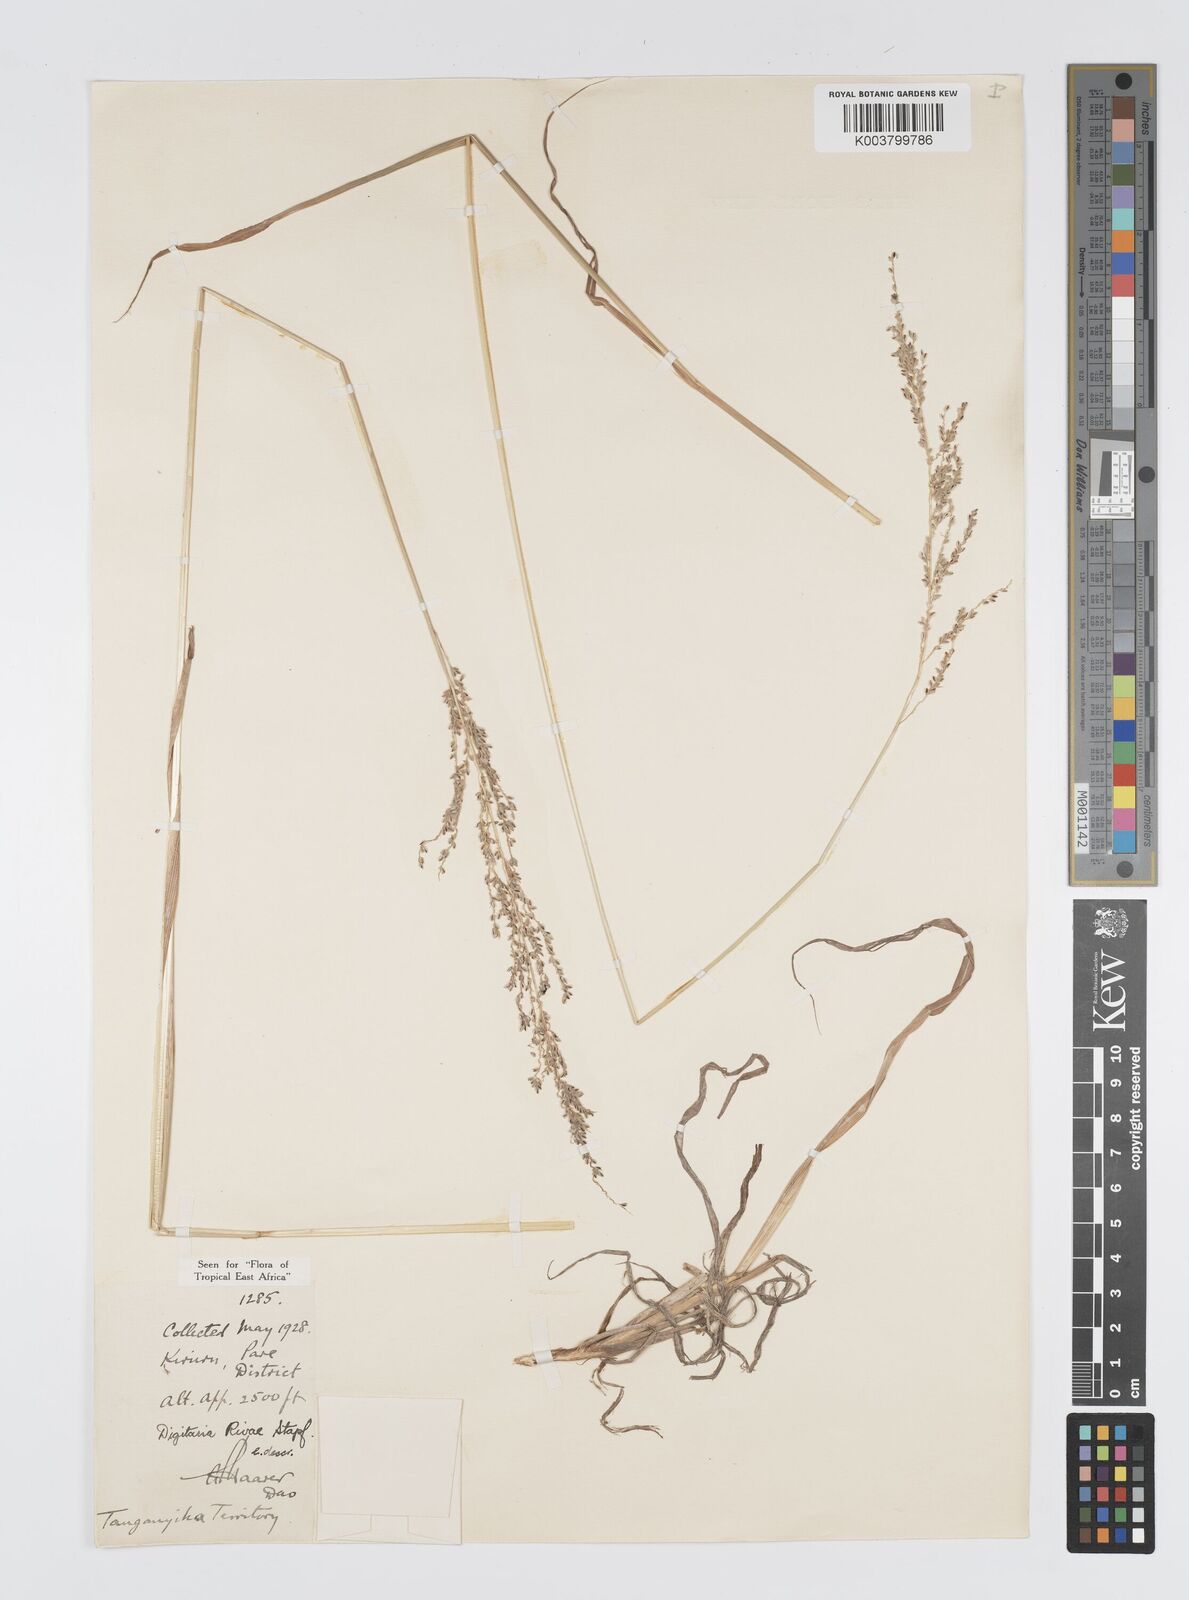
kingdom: Plantae
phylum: Tracheophyta
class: Liliopsida
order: Poales
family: Poaceae
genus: Digitaria
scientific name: Digitaria rivae
